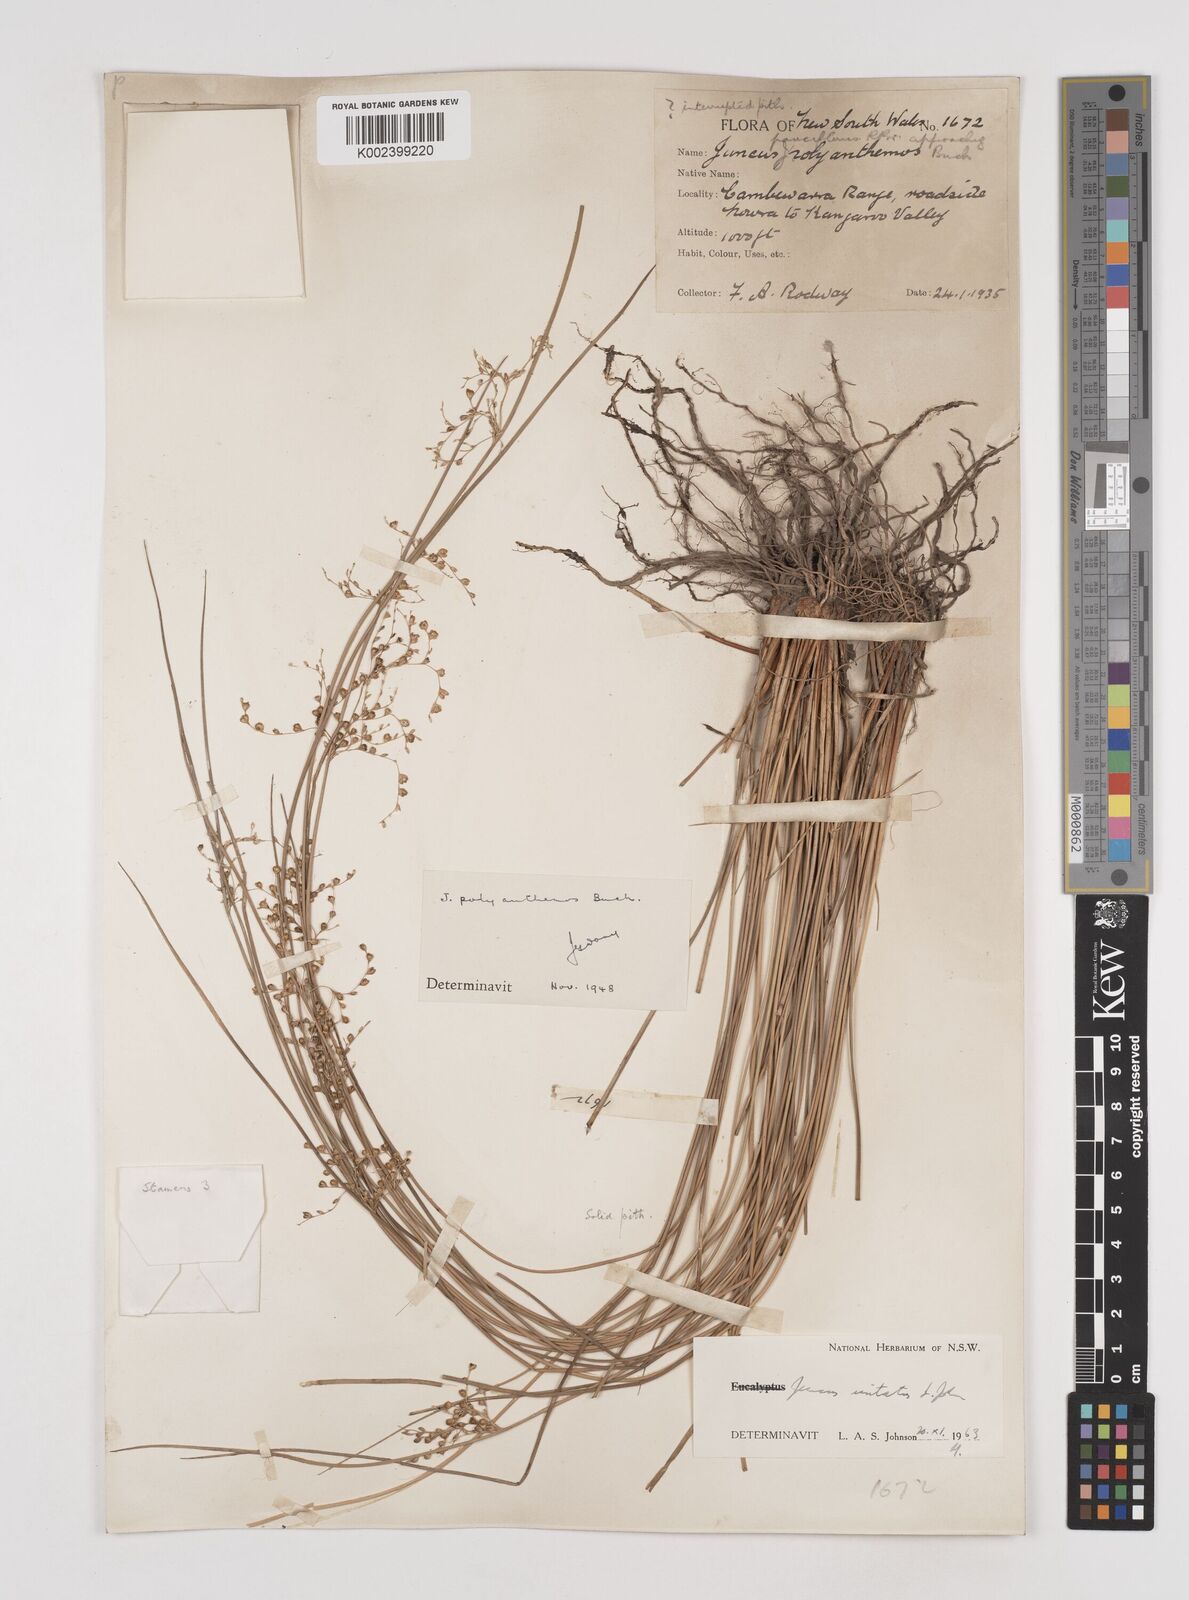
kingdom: Plantae
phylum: Tracheophyta
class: Liliopsida
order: Poales
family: Juncaceae
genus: Juncus
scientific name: Juncus usitatus
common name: Rush
